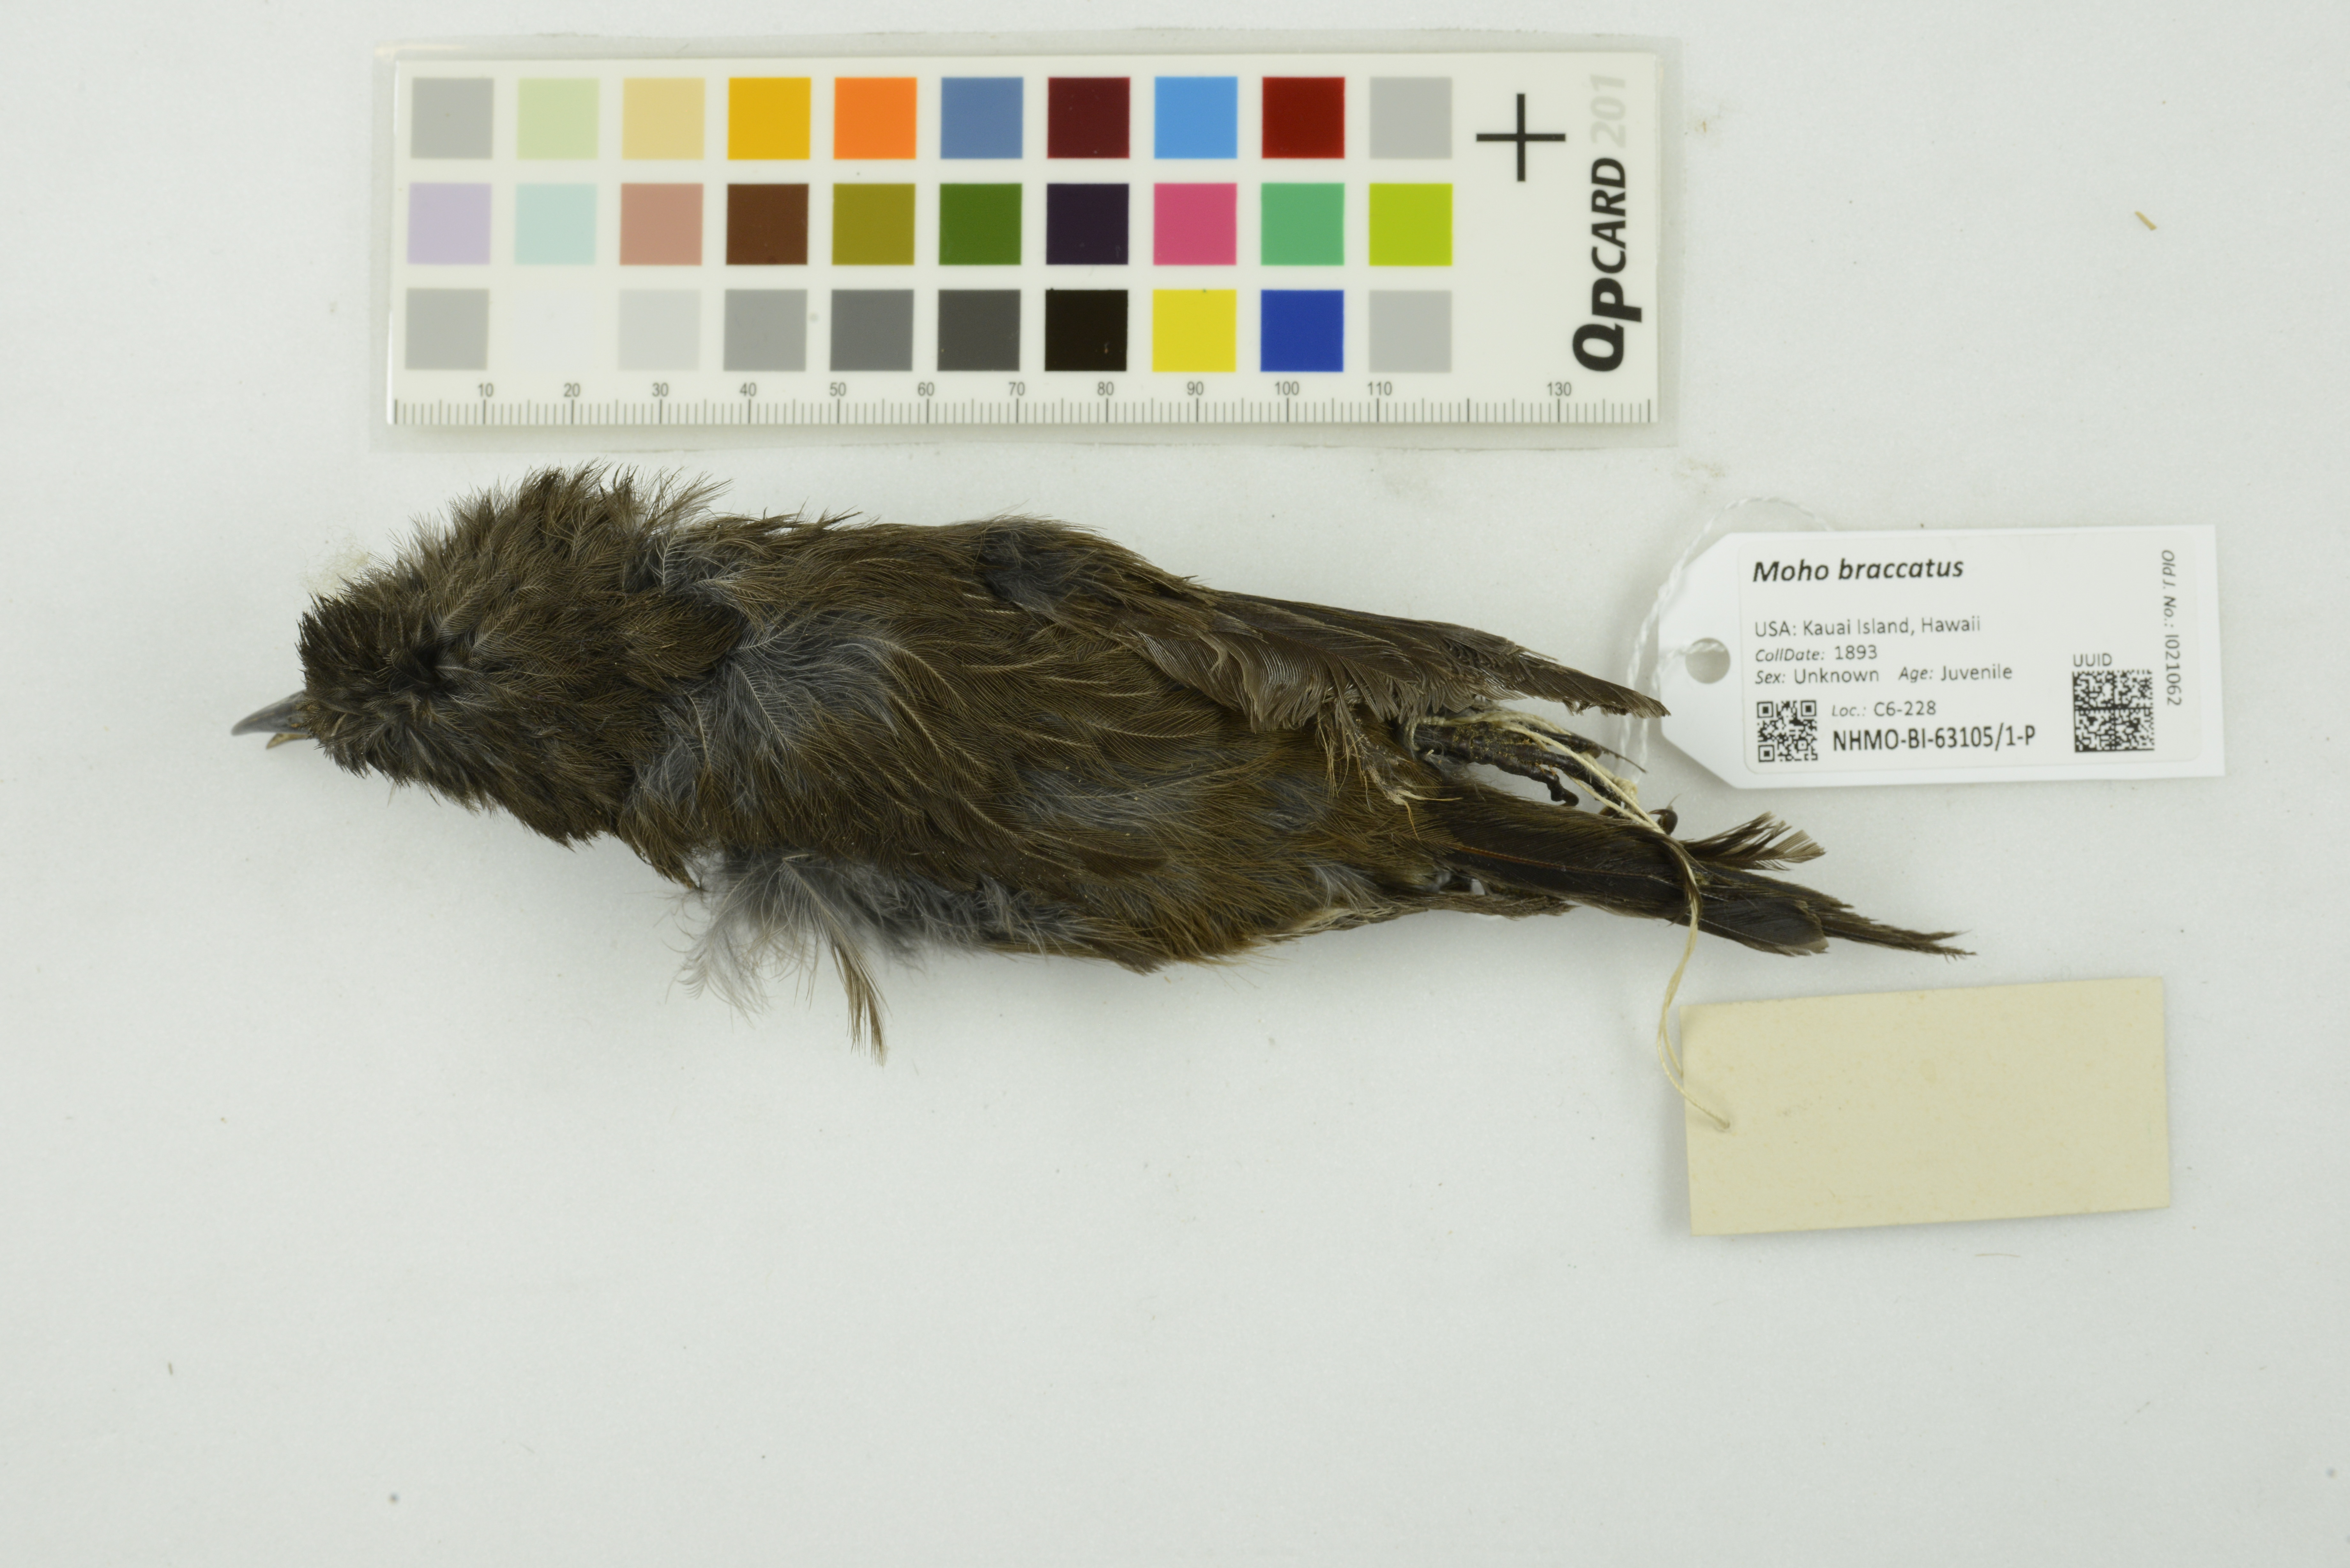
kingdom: Animalia
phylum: Chordata
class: Aves
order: Passeriformes
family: Mohoidae
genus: Moho
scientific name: Moho braccatus
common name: Kauai oo
